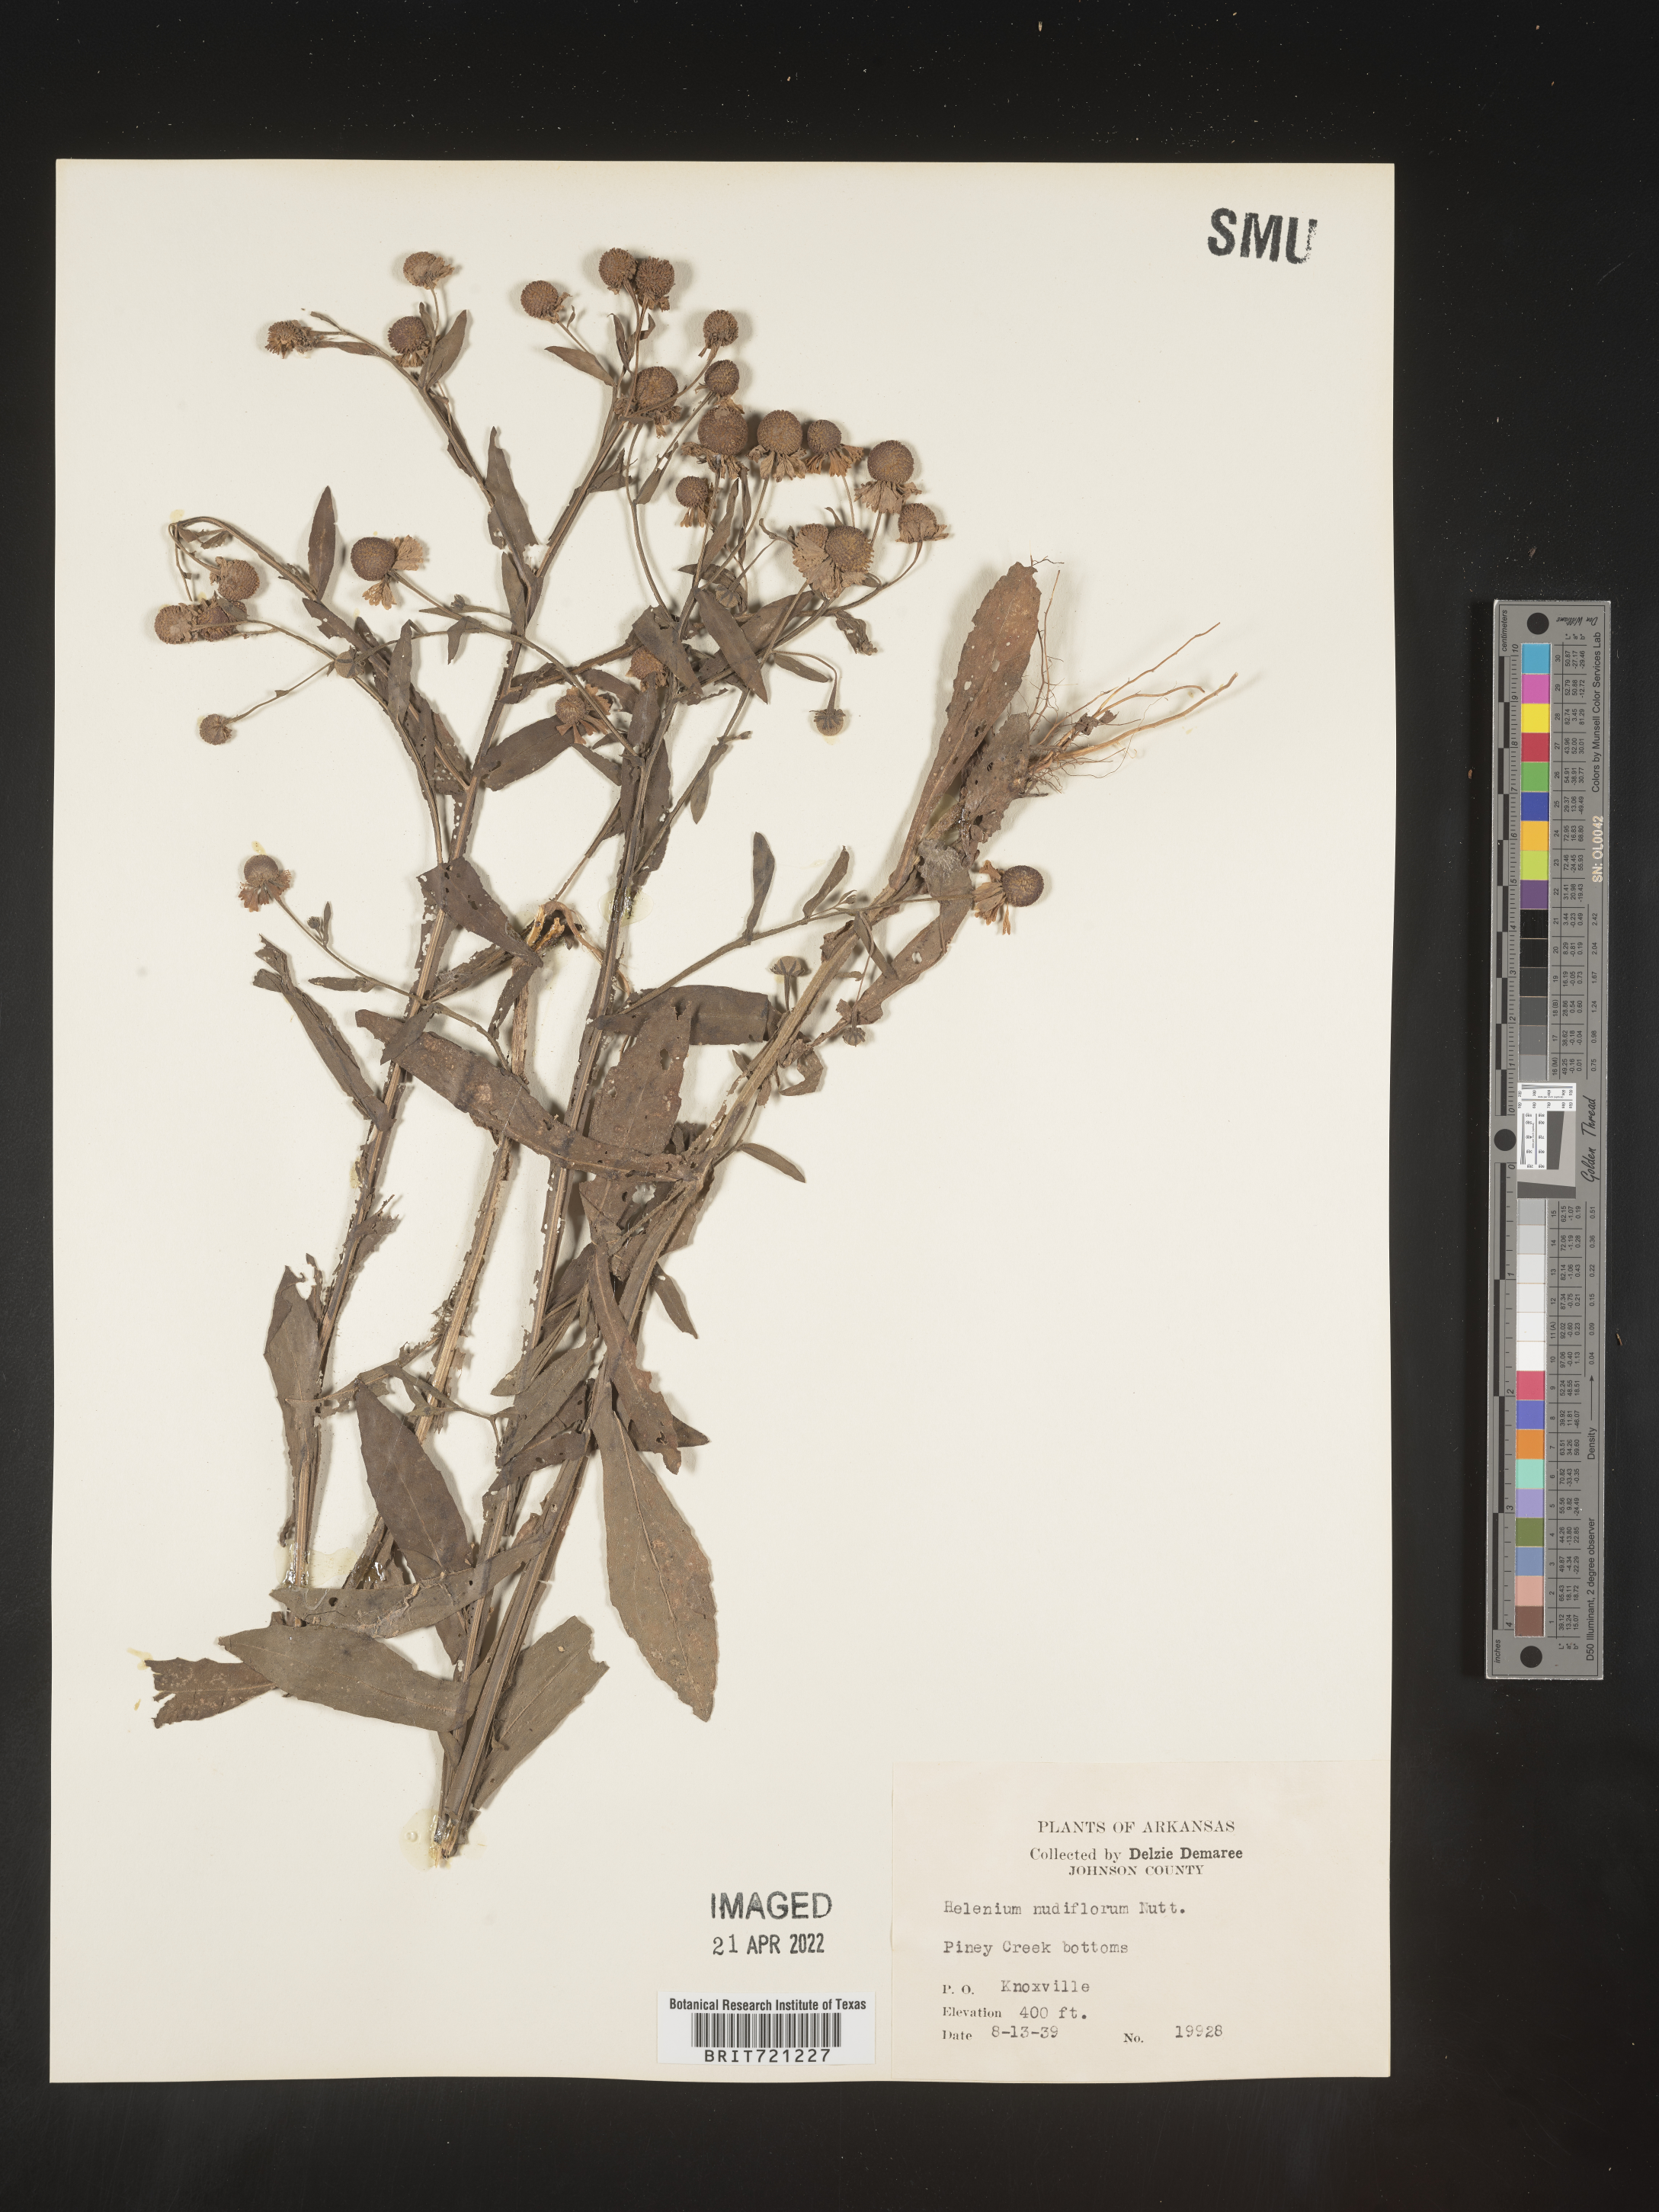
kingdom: Plantae
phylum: Tracheophyta
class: Magnoliopsida
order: Asterales
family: Asteraceae
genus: Helenium
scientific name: Helenium flexuosum
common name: Naked-flowered sneezeweed
